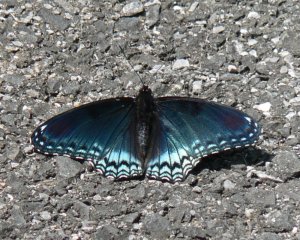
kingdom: Animalia
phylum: Arthropoda
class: Insecta
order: Lepidoptera
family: Nymphalidae
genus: Limenitis
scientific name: Limenitis astyanax
